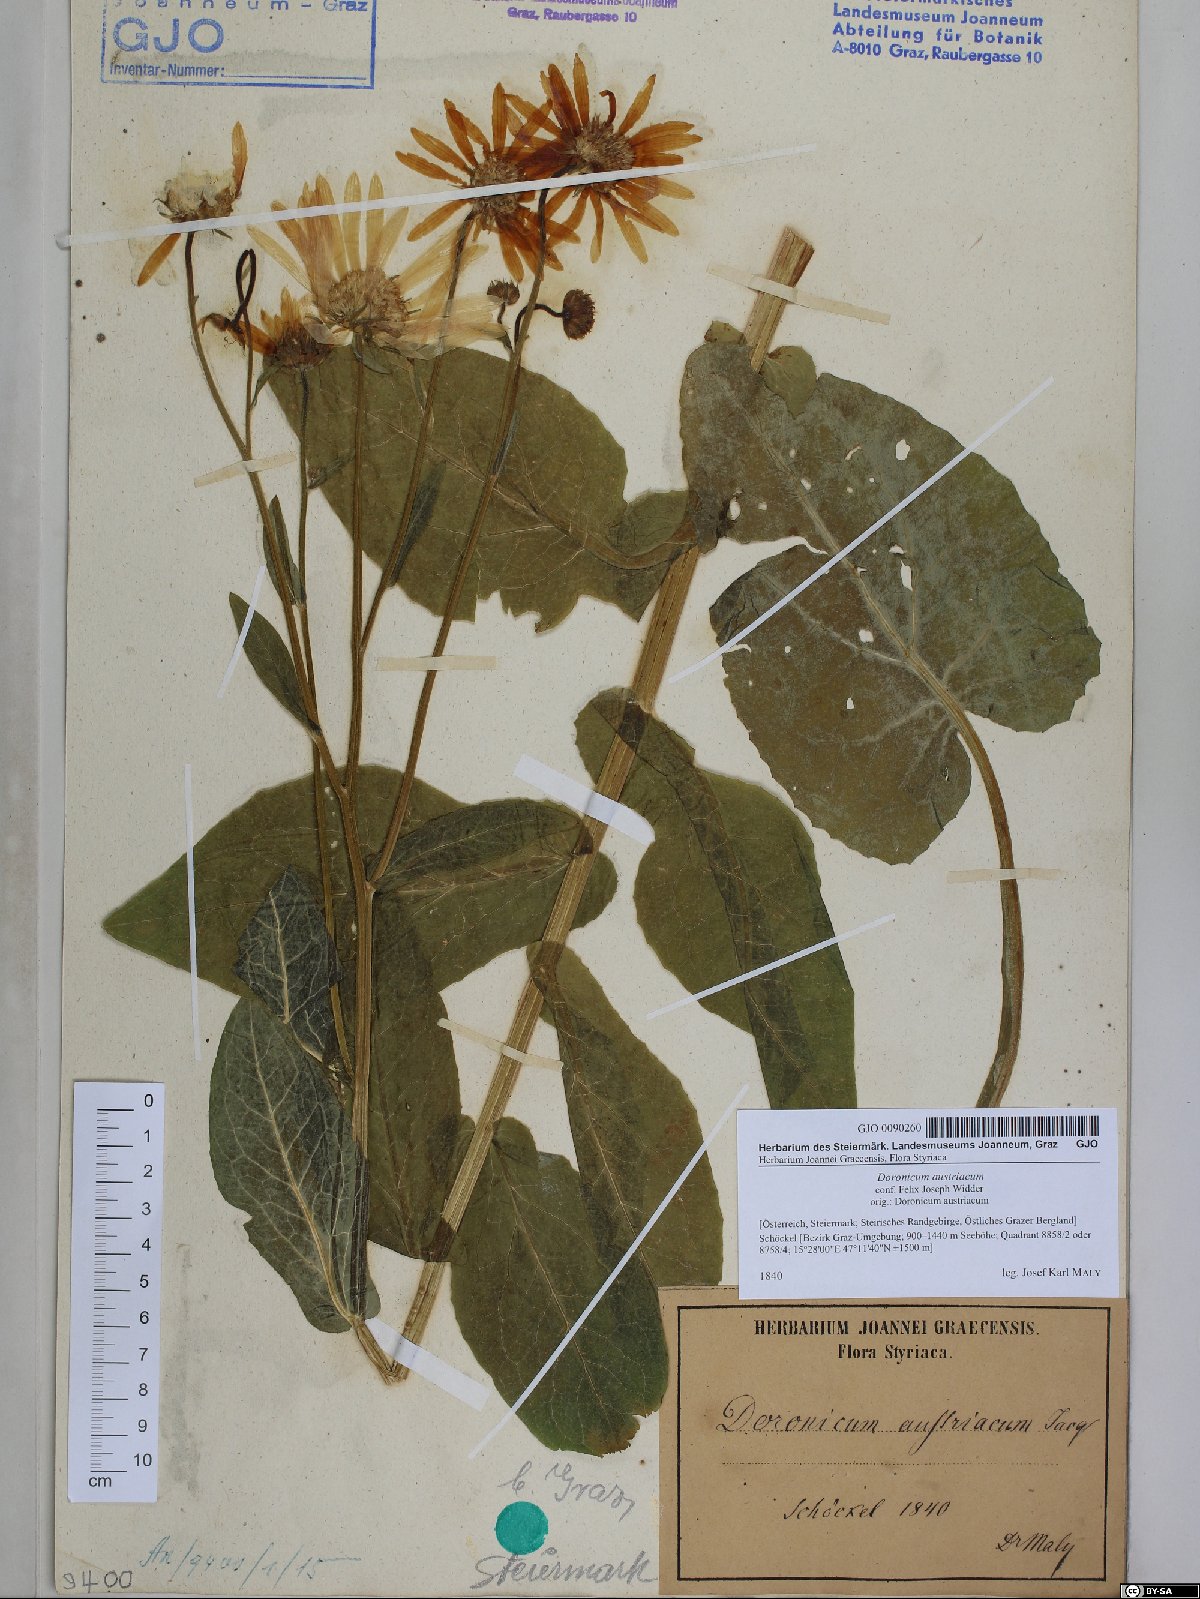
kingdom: Plantae
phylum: Tracheophyta
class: Magnoliopsida
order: Asterales
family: Asteraceae
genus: Doronicum
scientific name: Doronicum austriacum
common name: Austrian leopard's-bane
